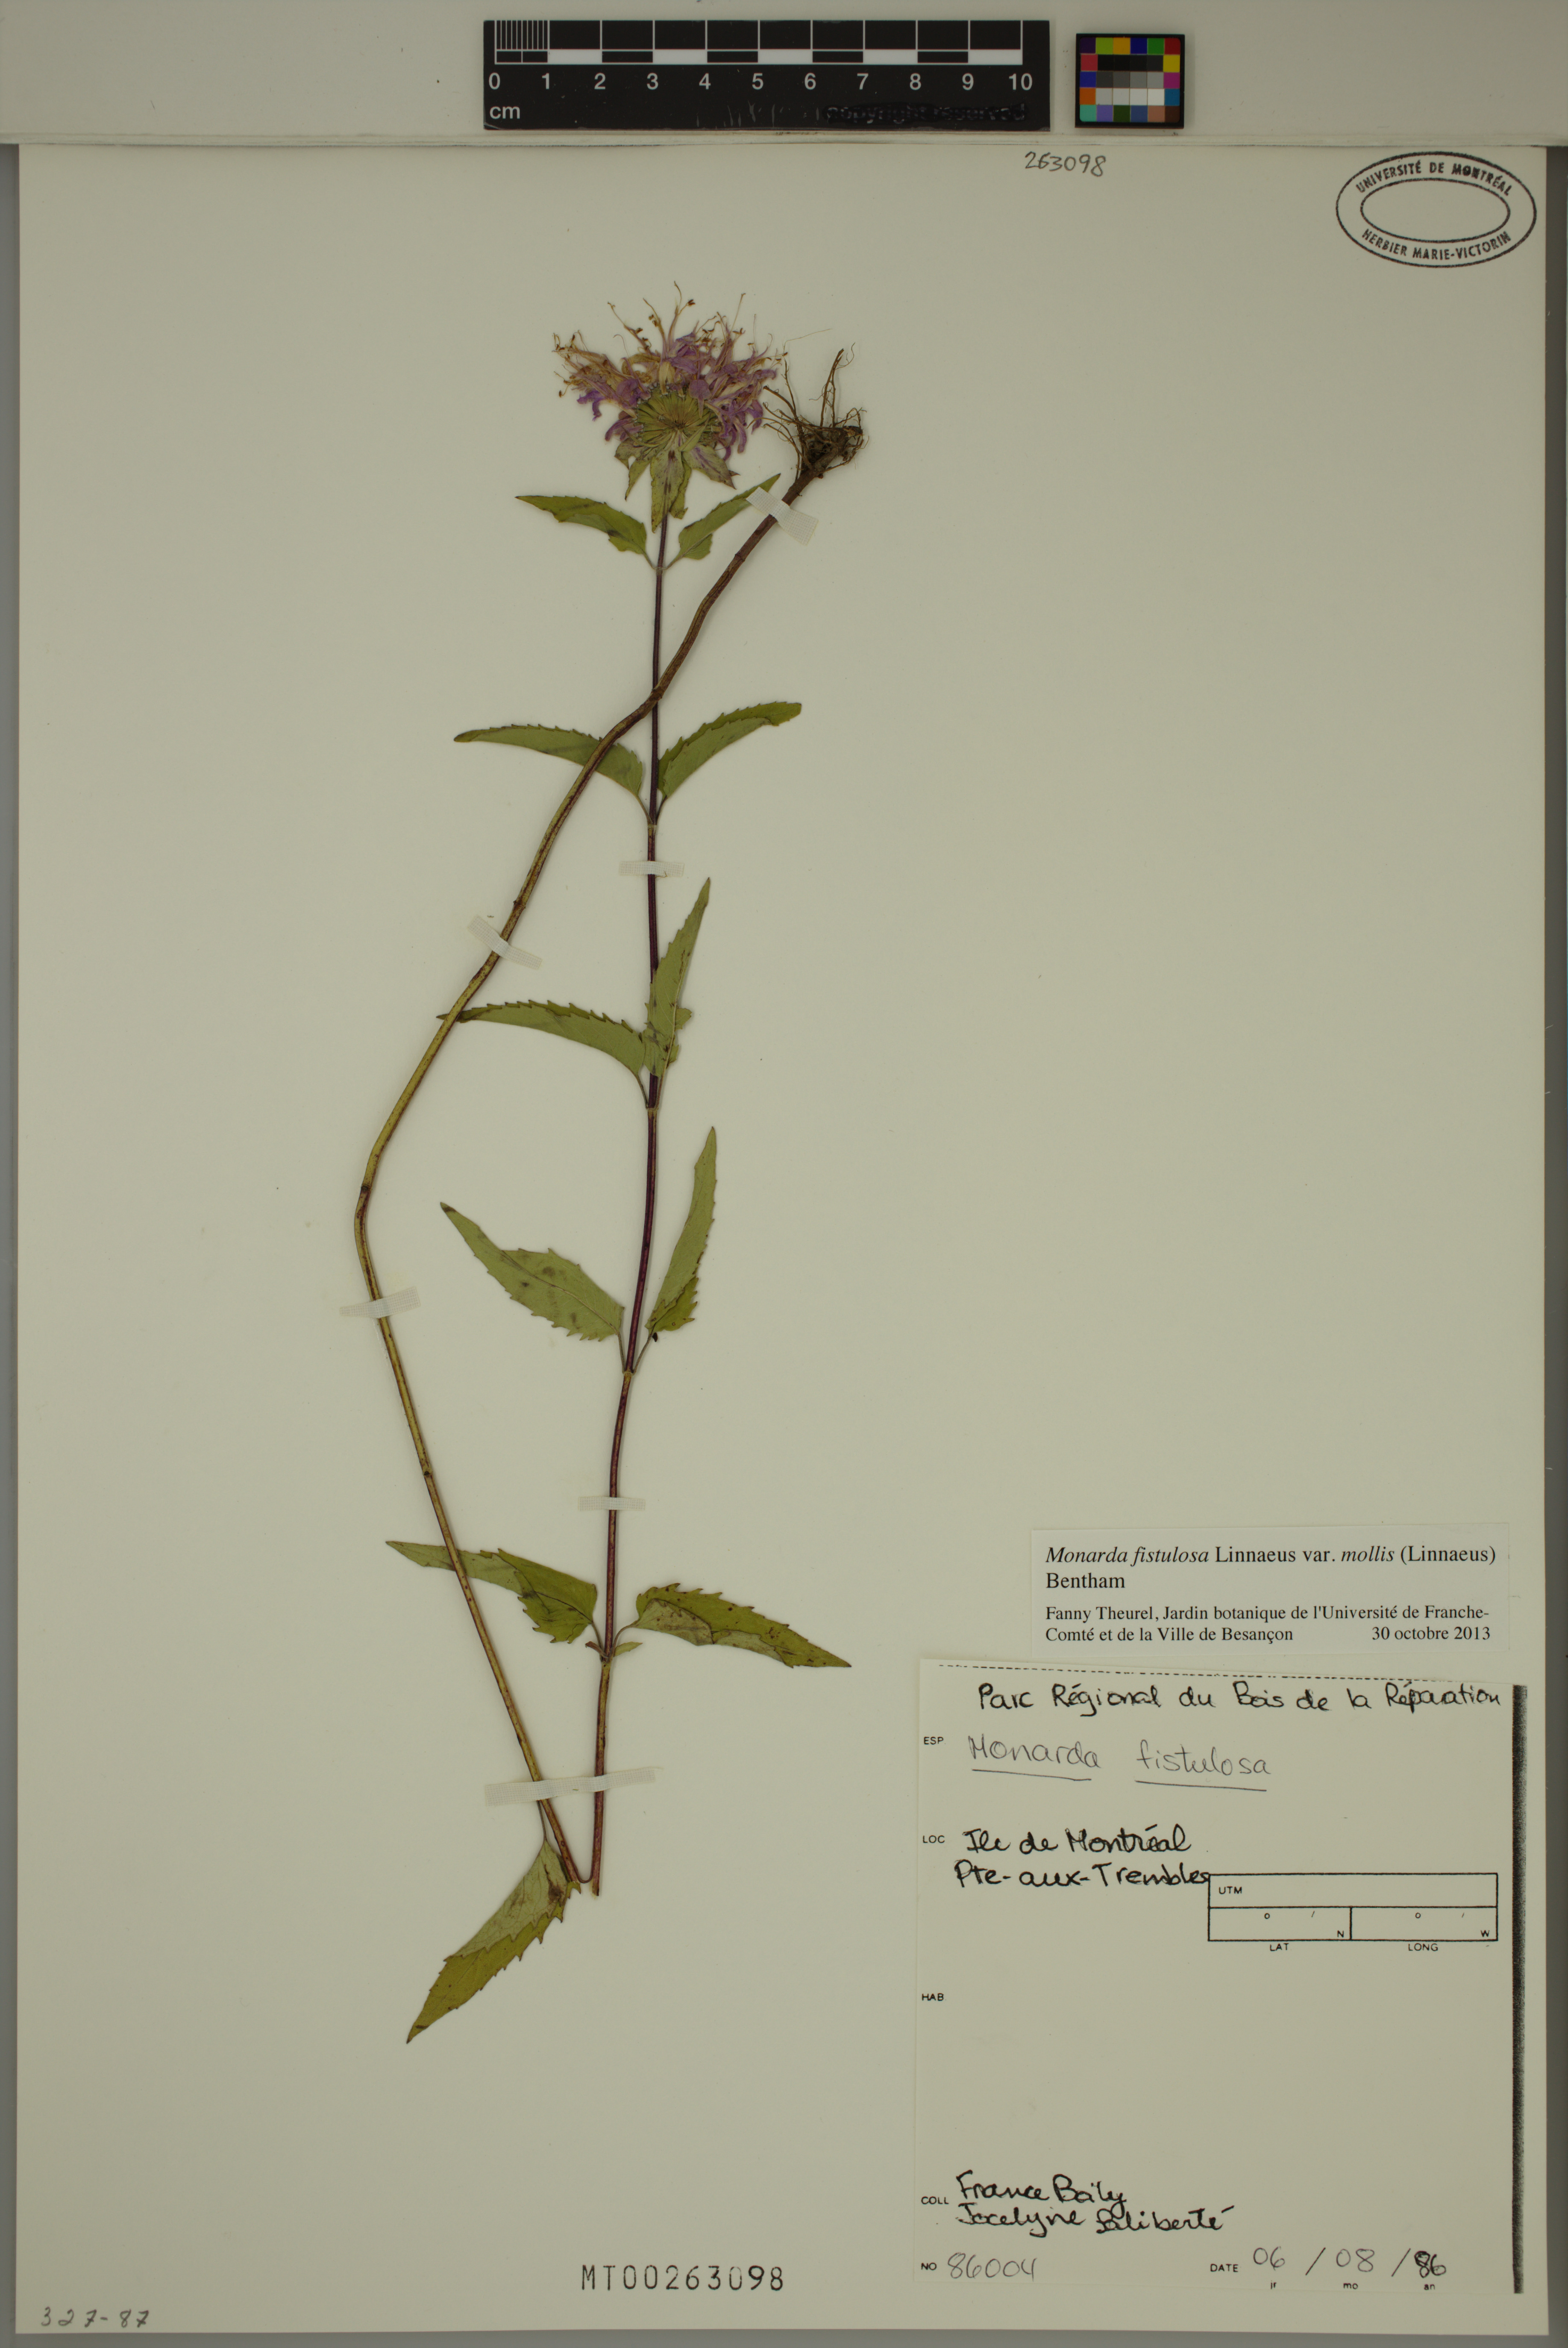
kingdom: Plantae
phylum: Tracheophyta
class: Magnoliopsida
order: Lamiales
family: Lamiaceae
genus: Monarda
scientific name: Monarda fistulosa
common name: Purple beebalm
